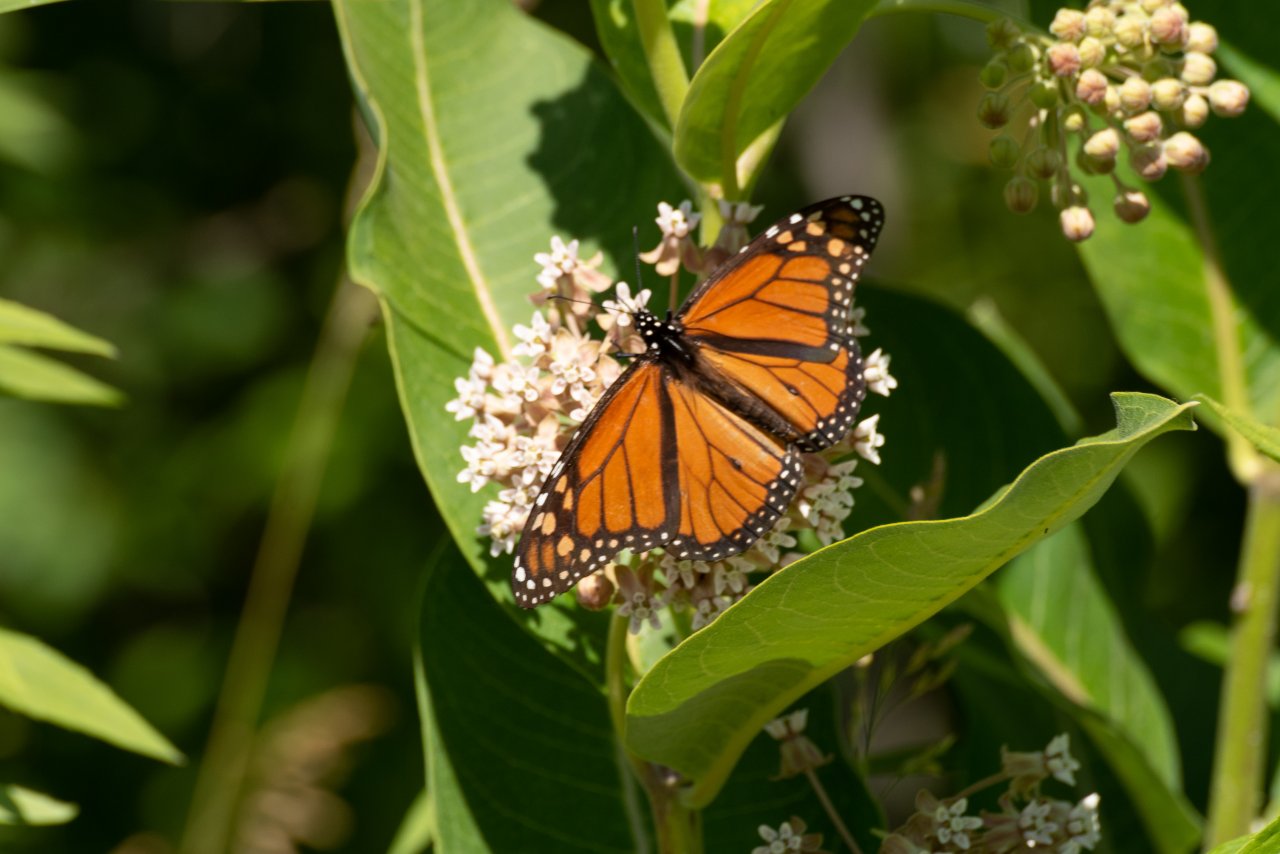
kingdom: Animalia
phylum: Arthropoda
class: Insecta
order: Lepidoptera
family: Nymphalidae
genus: Danaus
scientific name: Danaus plexippus
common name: Monarch
